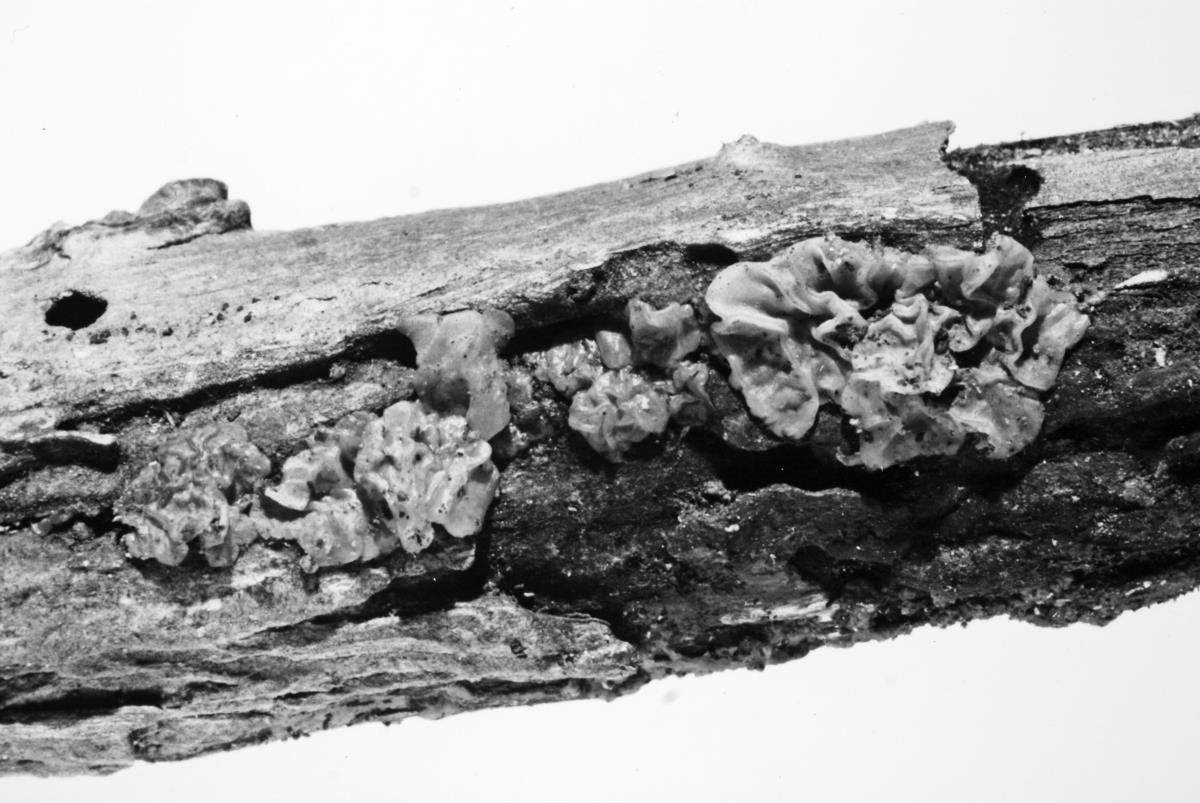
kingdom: Fungi
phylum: Basidiomycota
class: Agaricomycetes
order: Auriculariales
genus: Ductifera
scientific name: Ductifera sucina
